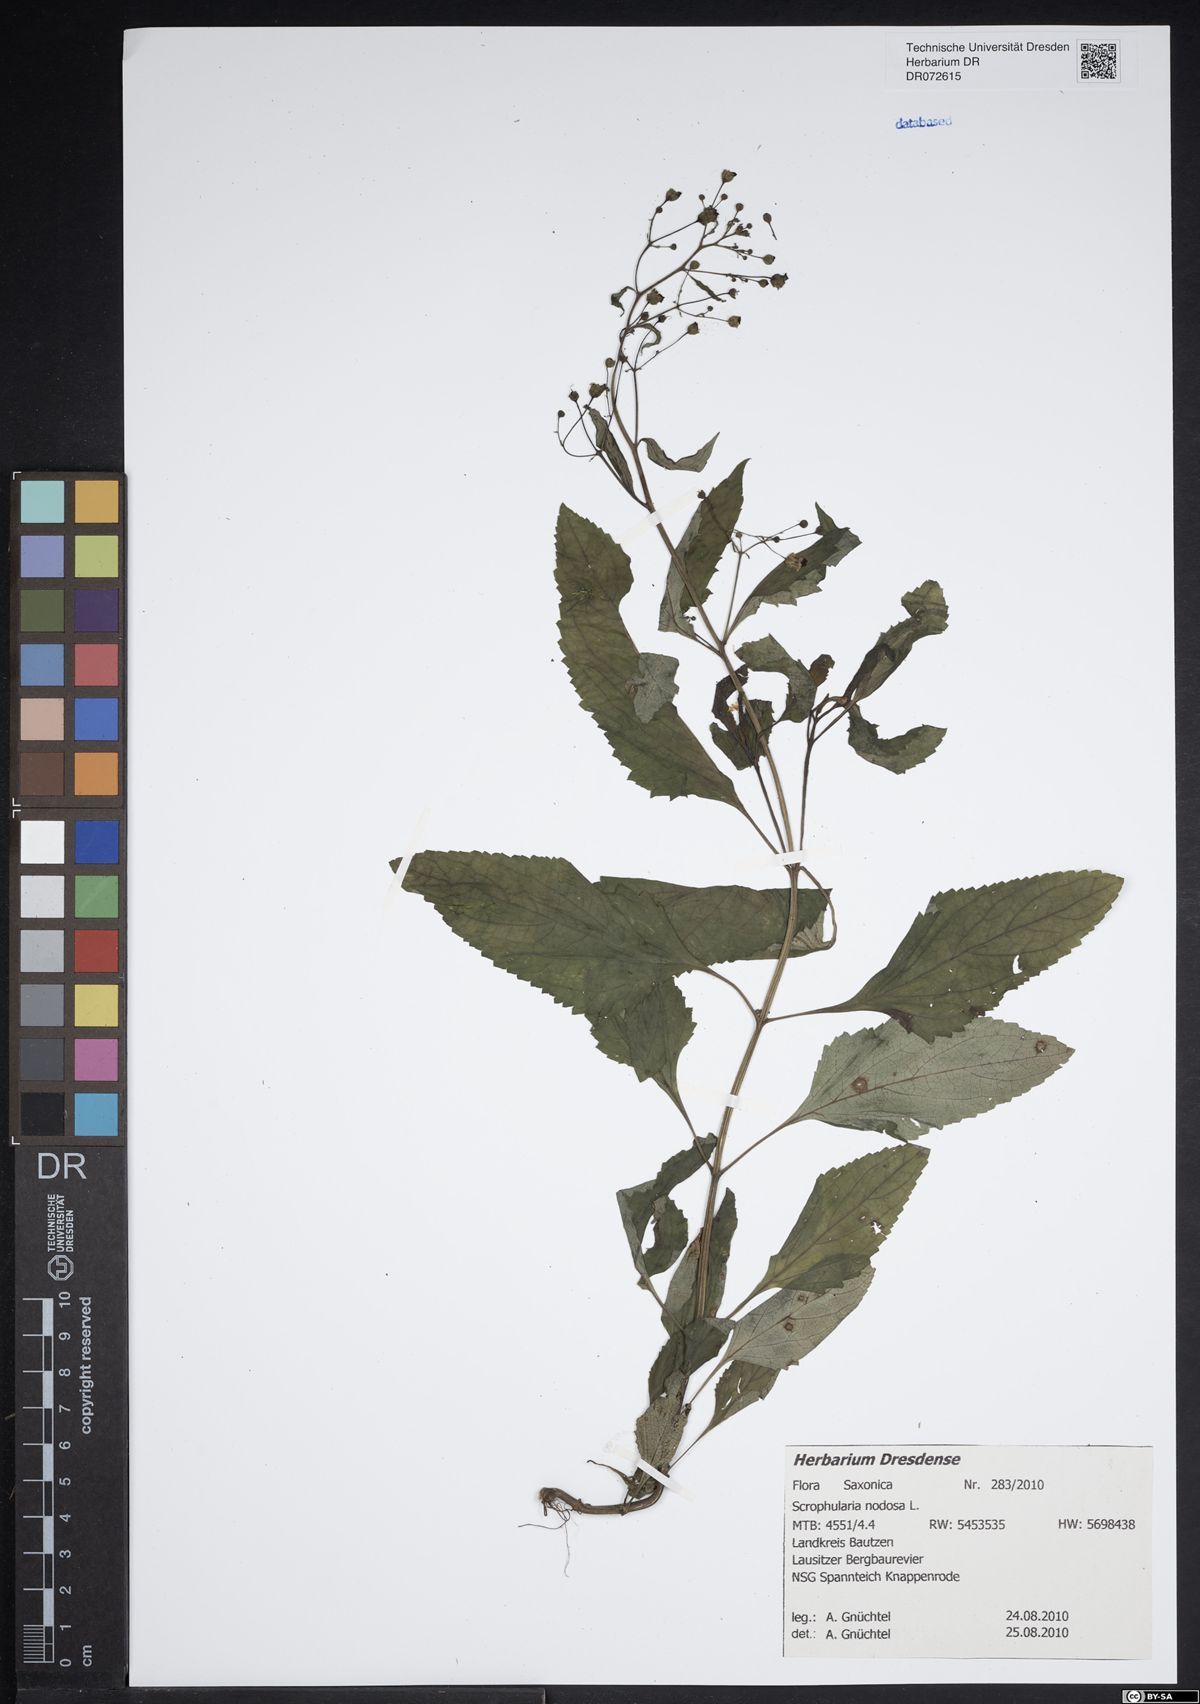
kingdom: Plantae
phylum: Tracheophyta
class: Magnoliopsida
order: Lamiales
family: Scrophulariaceae
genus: Scrophularia
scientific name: Scrophularia nodosa
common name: Common figwort
